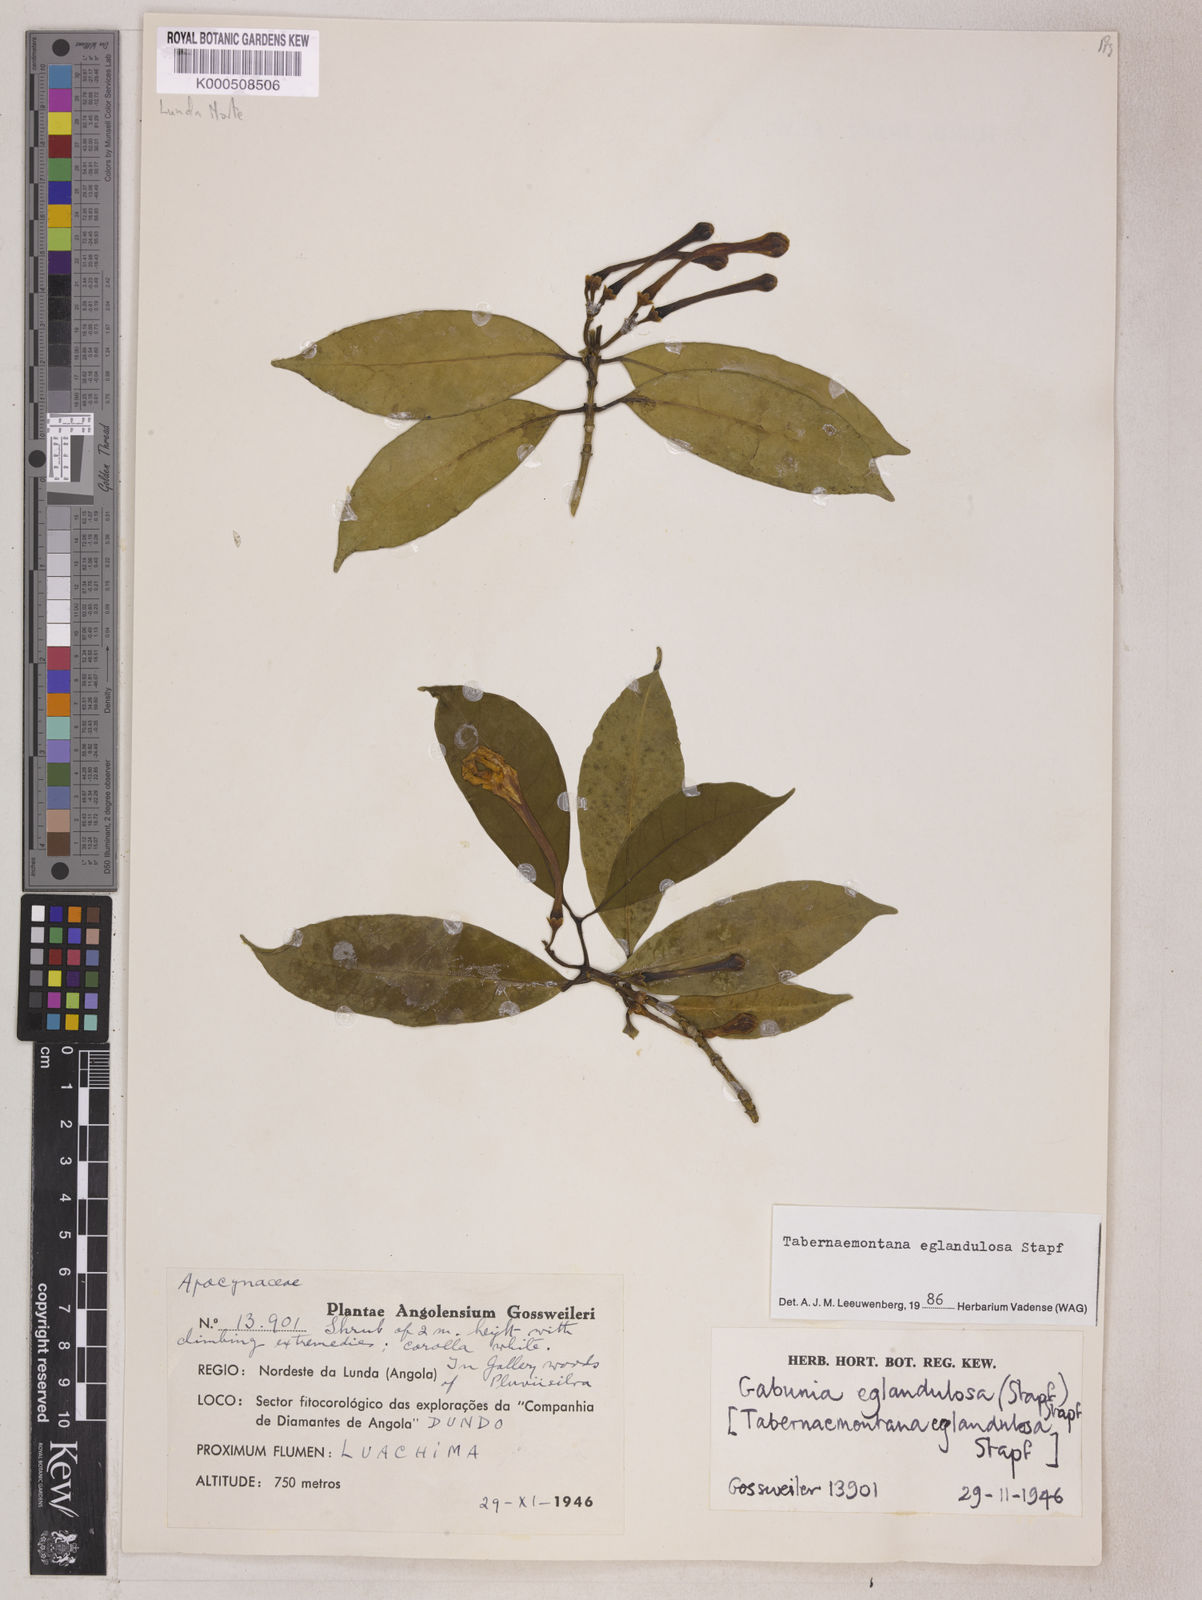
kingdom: Plantae
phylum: Tracheophyta
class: Magnoliopsida
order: Gentianales
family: Apocynaceae
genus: Tabernaemontana
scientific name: Tabernaemontana eglandulosa
